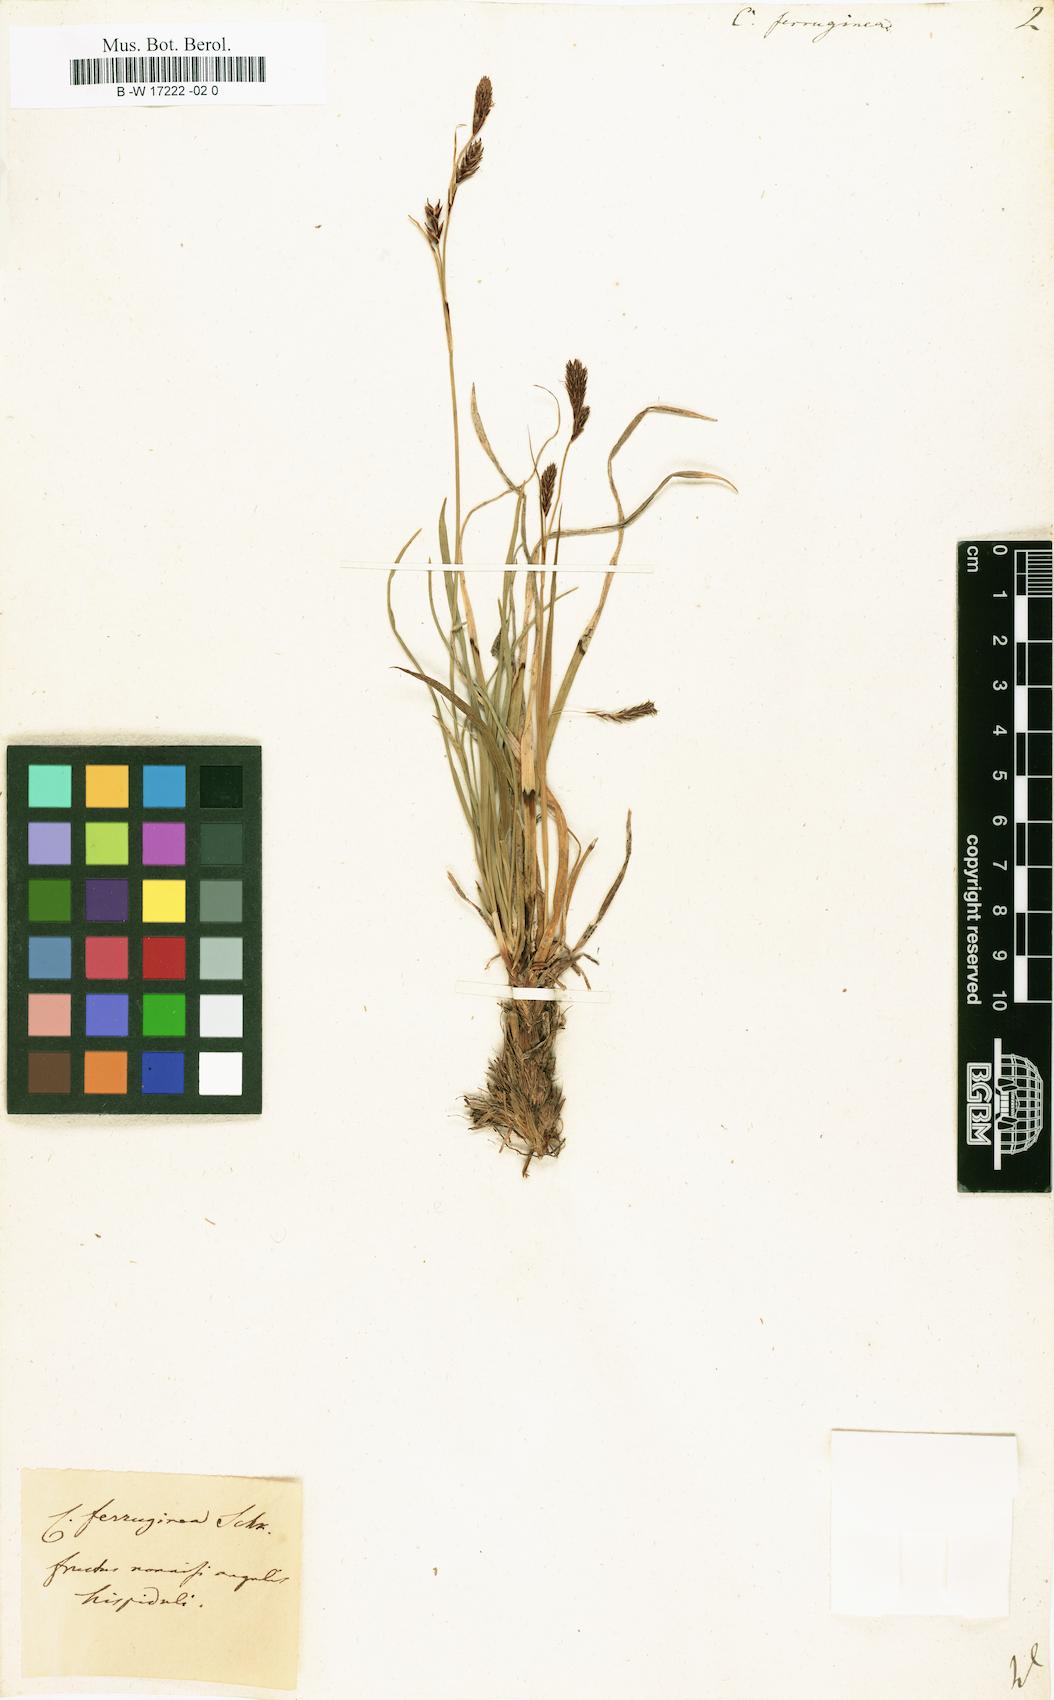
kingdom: Plantae
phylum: Tracheophyta
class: Liliopsida
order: Poales
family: Cyperaceae
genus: Carex
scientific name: Carex ferruginea
